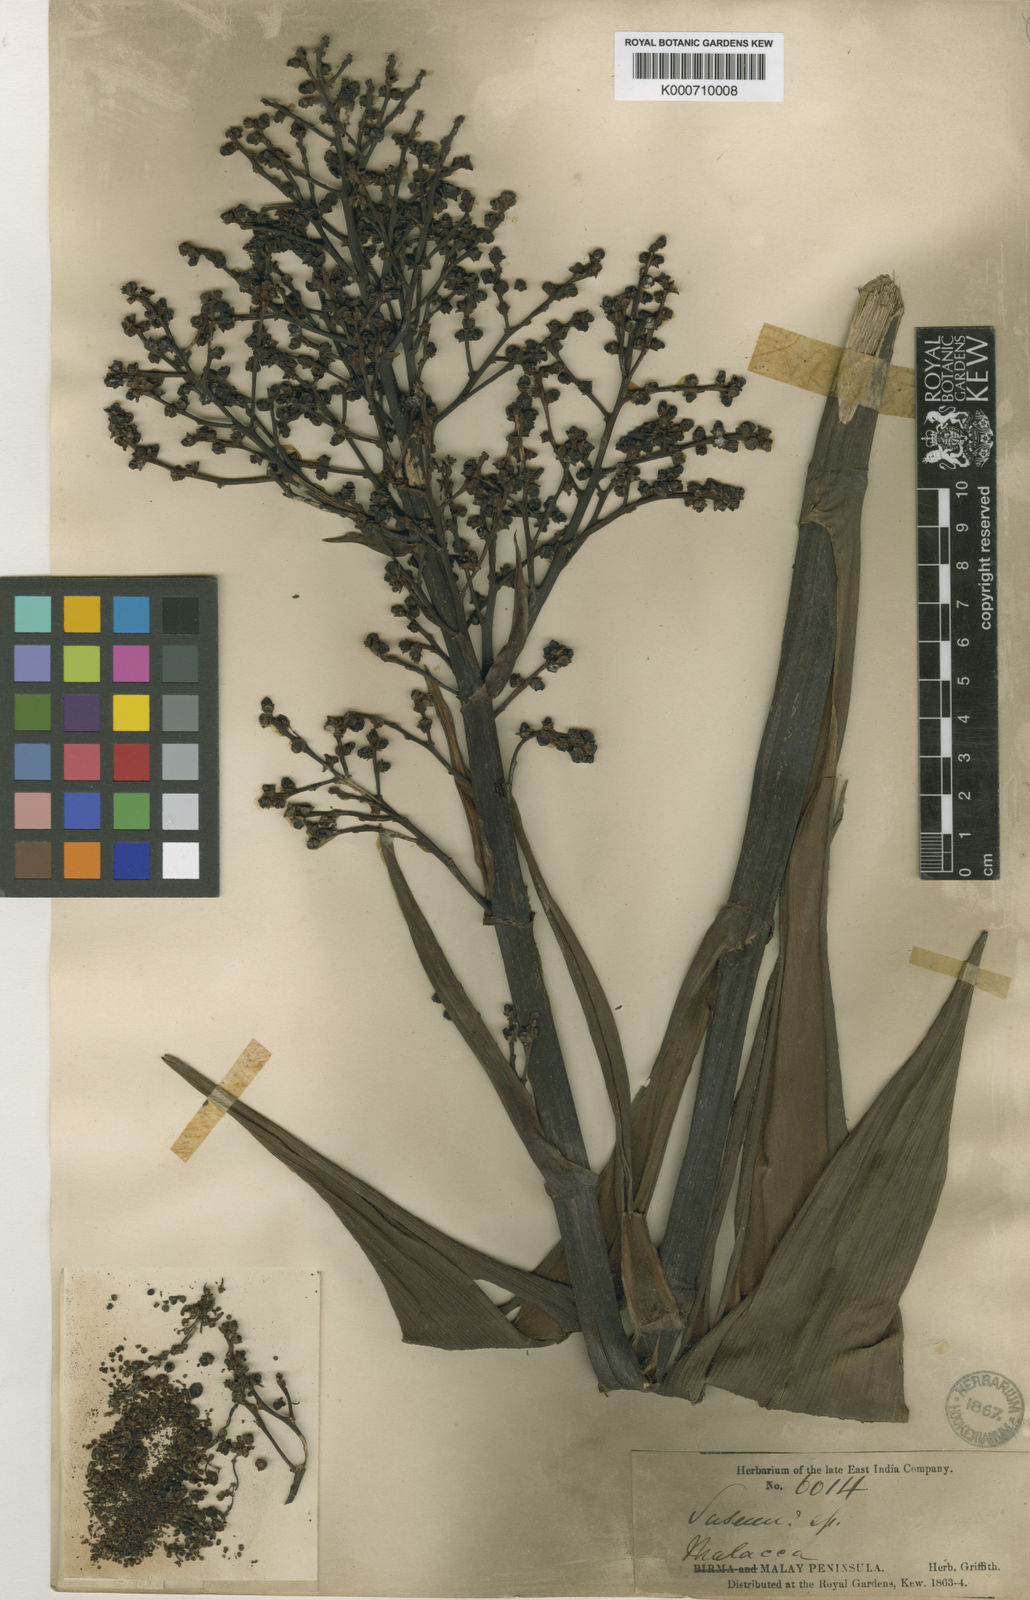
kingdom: Plantae
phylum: Tracheophyta
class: Liliopsida
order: Commelinales
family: Hanguanaceae
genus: Hanguana
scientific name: Hanguana malayana
